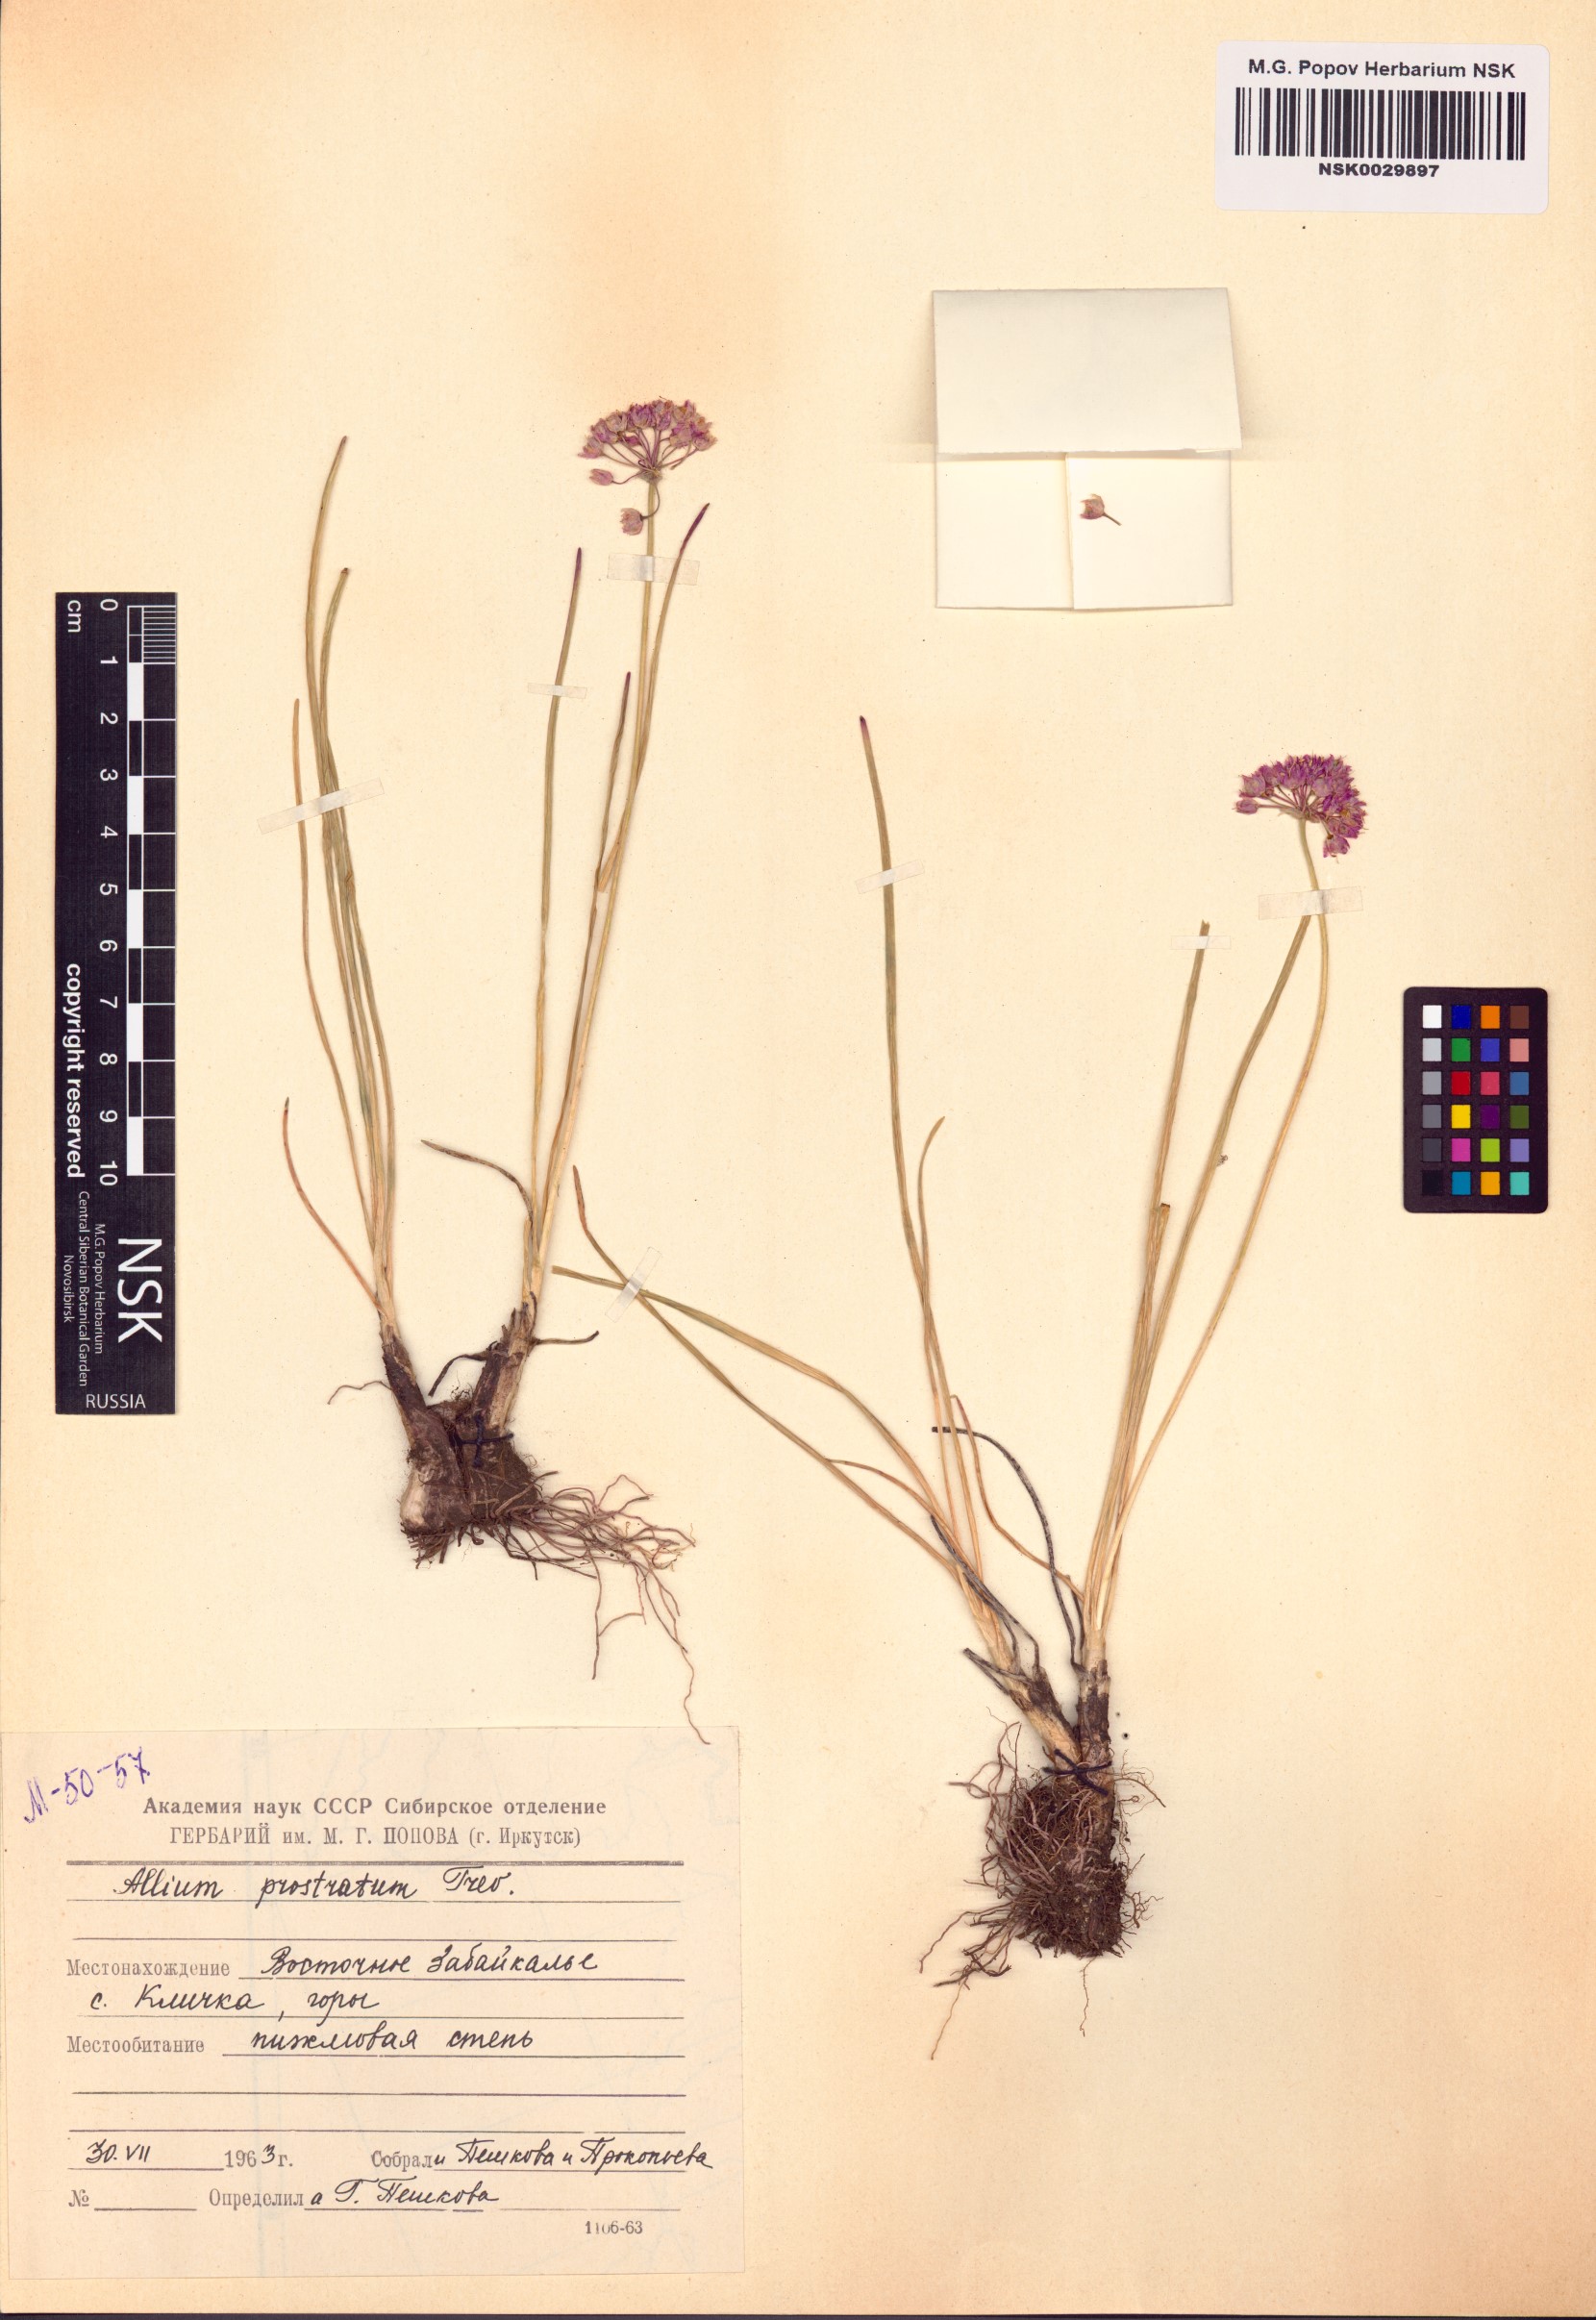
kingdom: Plantae
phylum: Tracheophyta
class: Liliopsida
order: Asparagales
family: Amaryllidaceae
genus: Allium
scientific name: Allium prostratum
